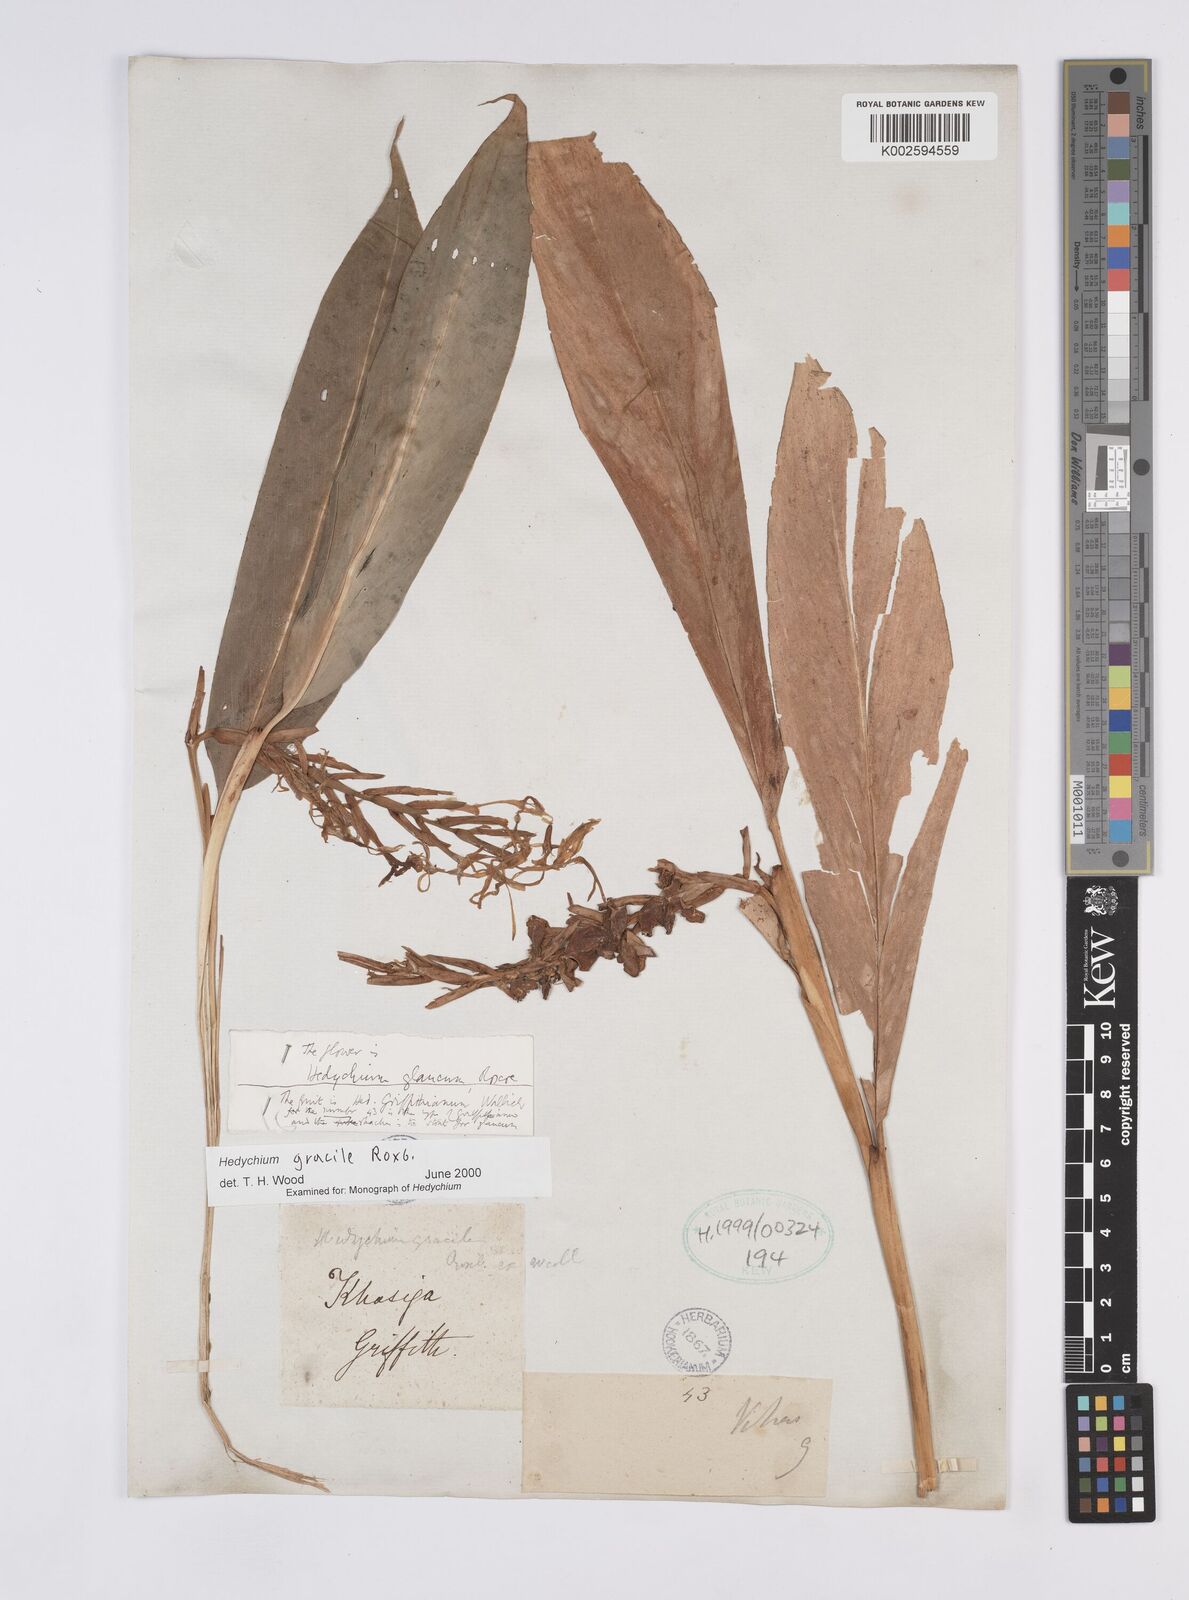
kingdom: Plantae
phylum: Tracheophyta
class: Liliopsida
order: Zingiberales
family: Zingiberaceae
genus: Hedychium
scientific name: Hedychium glaucum
